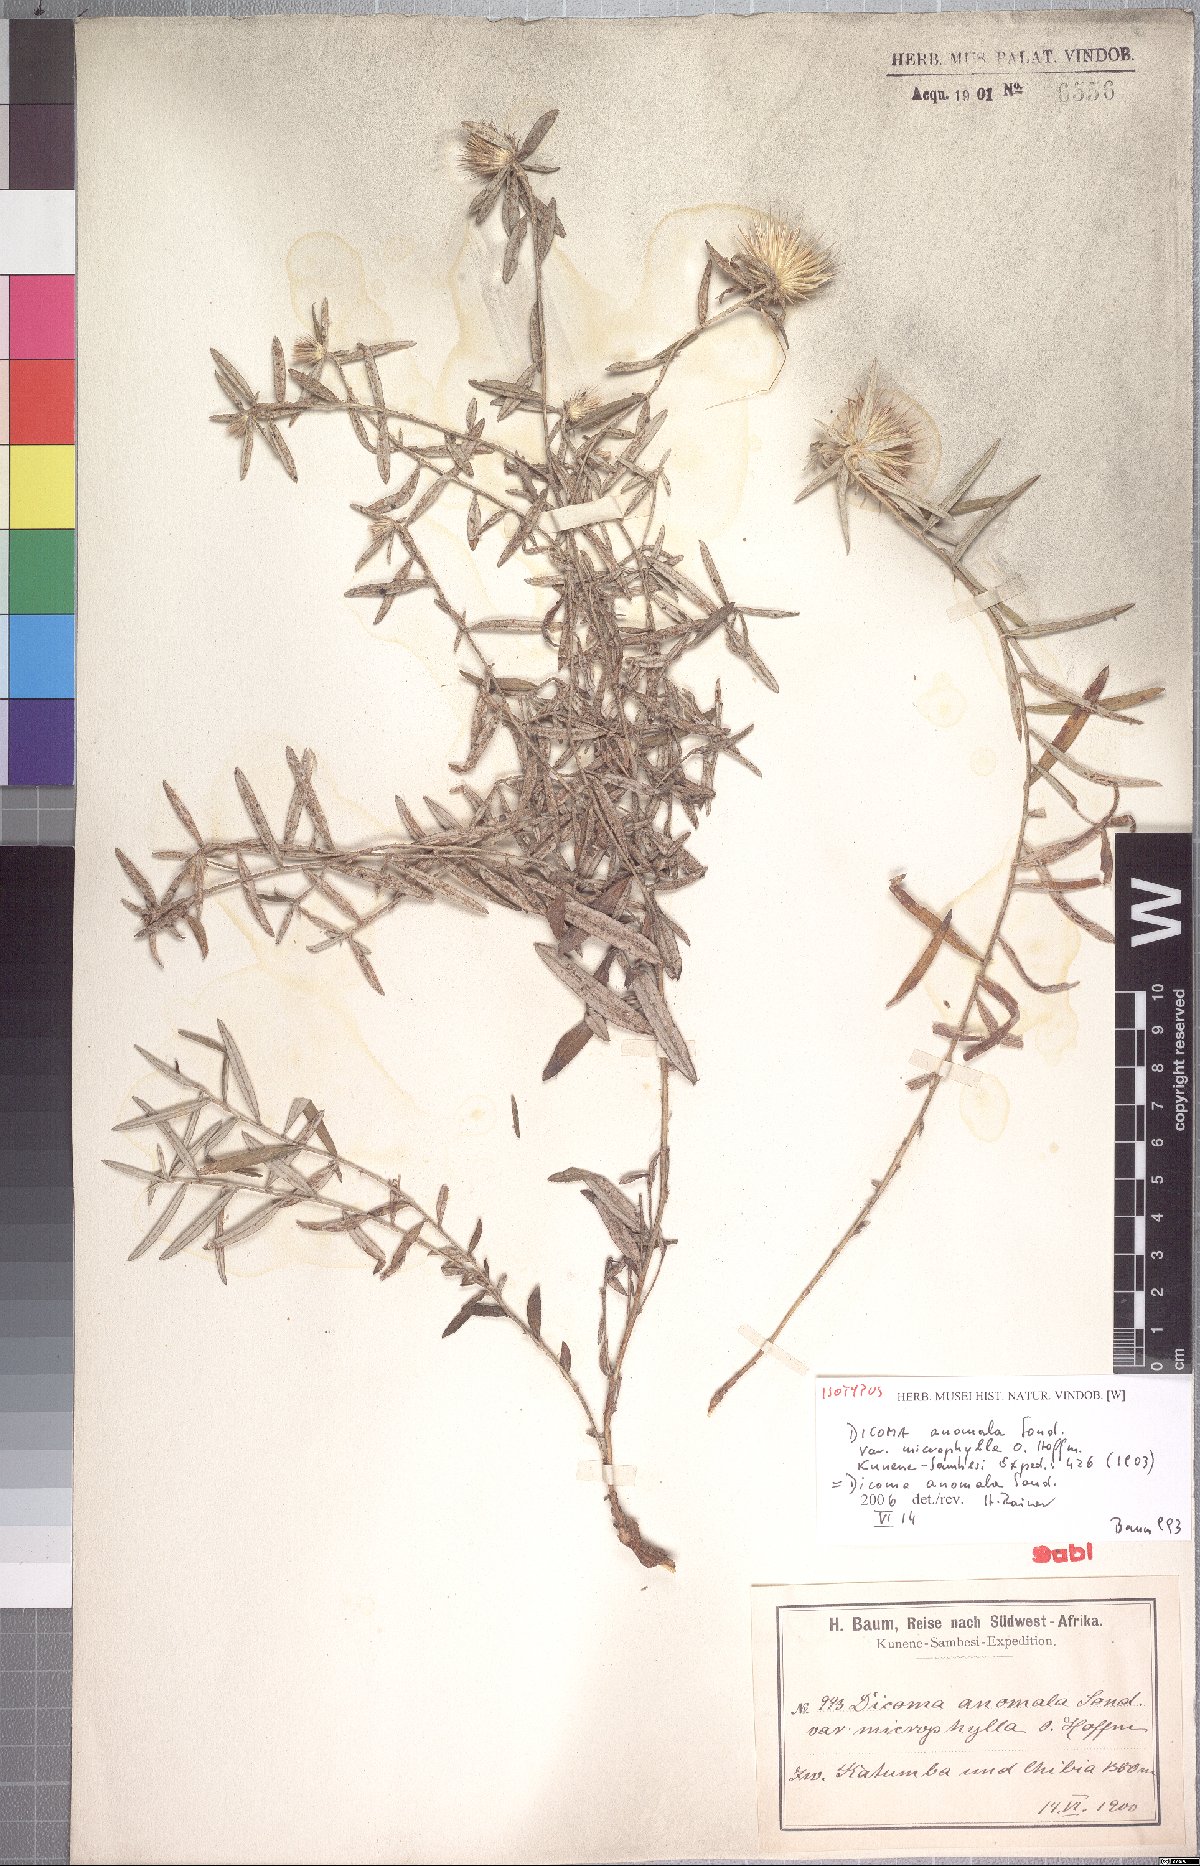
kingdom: Plantae
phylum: Tracheophyta
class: Magnoliopsida
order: Asterales
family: Asteraceae
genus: Dicoma
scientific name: Dicoma anomala
